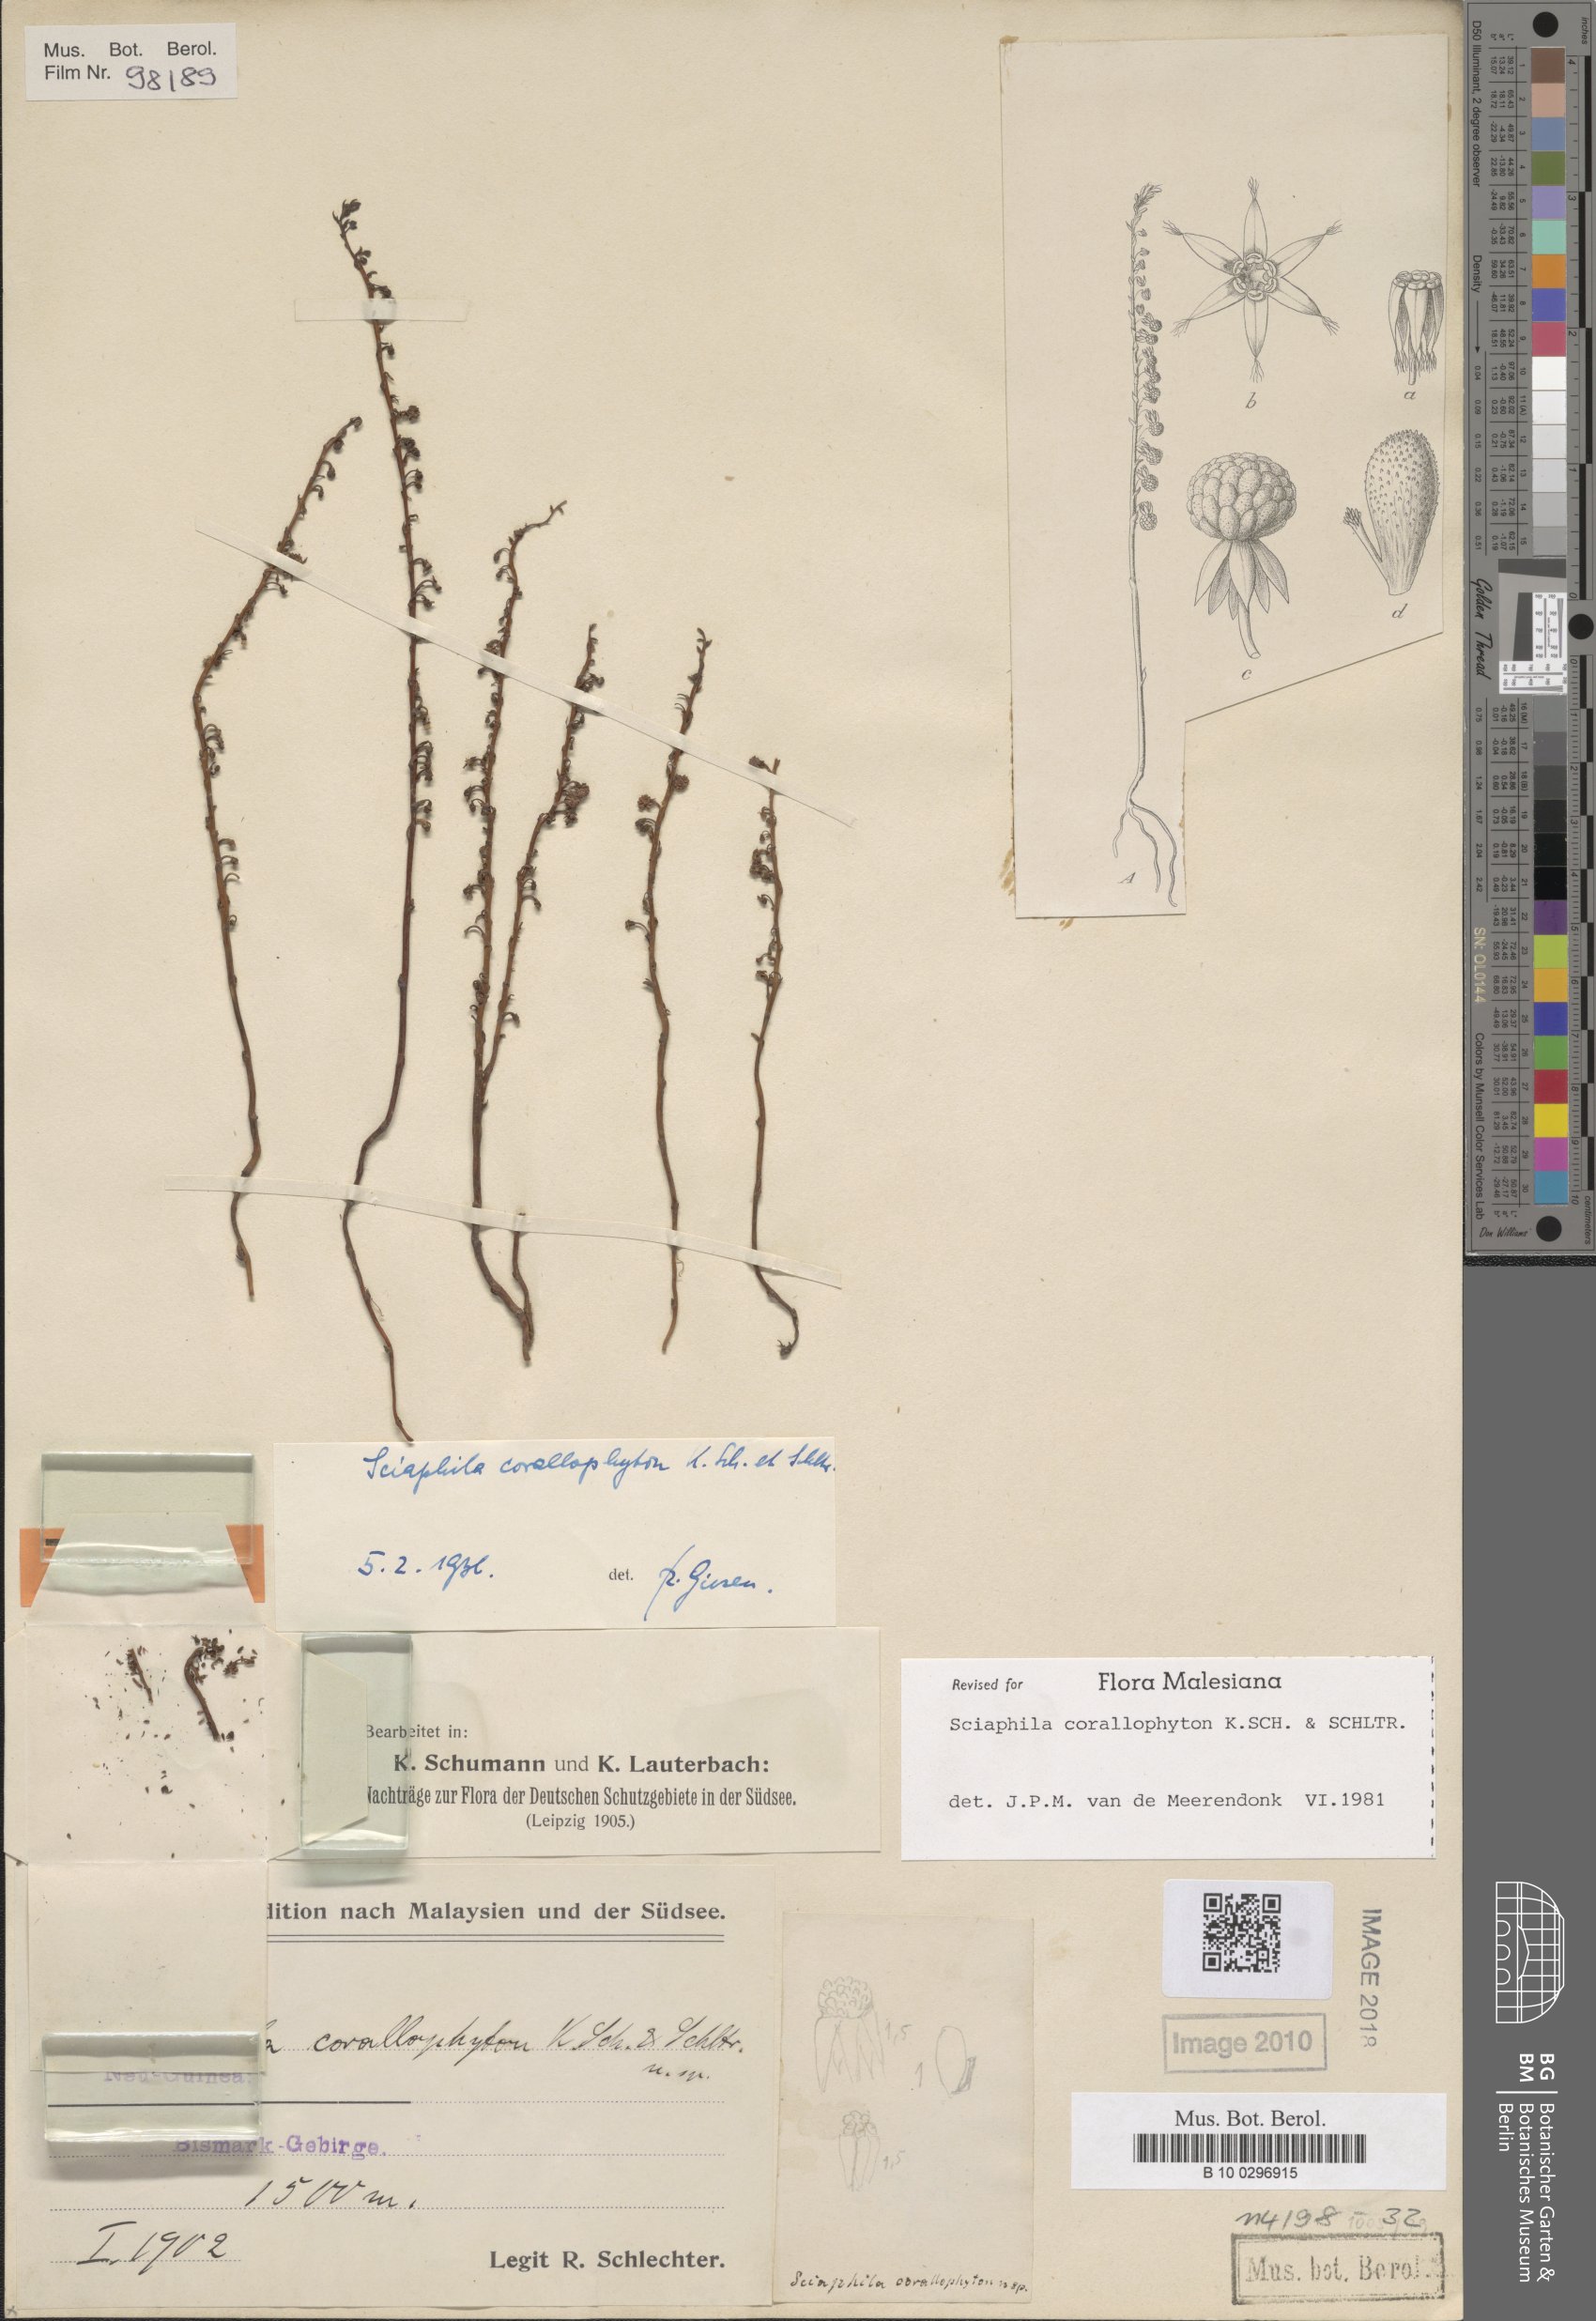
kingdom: Plantae
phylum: Tracheophyta
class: Liliopsida
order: Pandanales
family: Triuridaceae
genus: Sciaphila
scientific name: Sciaphila corallophyton
